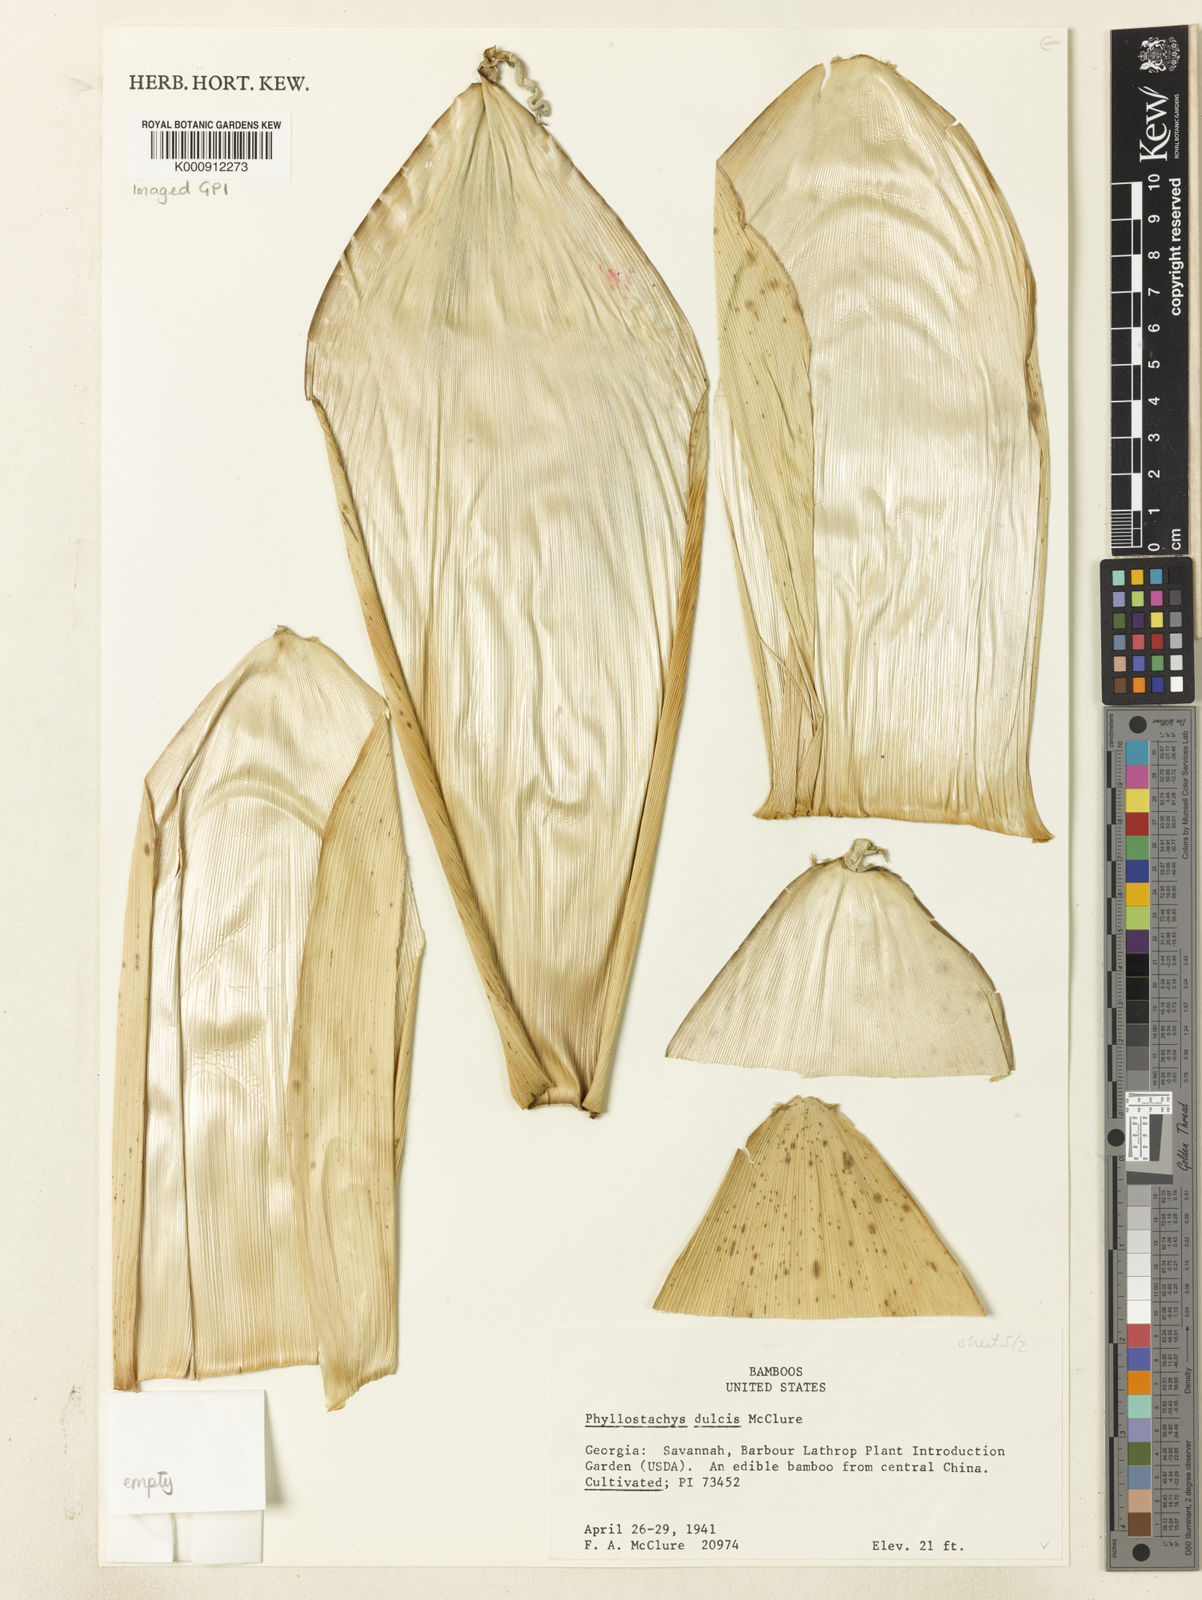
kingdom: Plantae
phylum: Tracheophyta
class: Liliopsida
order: Poales
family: Poaceae
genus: Phyllostachys
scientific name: Phyllostachys dulcis
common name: Sweetshoot bamboo
